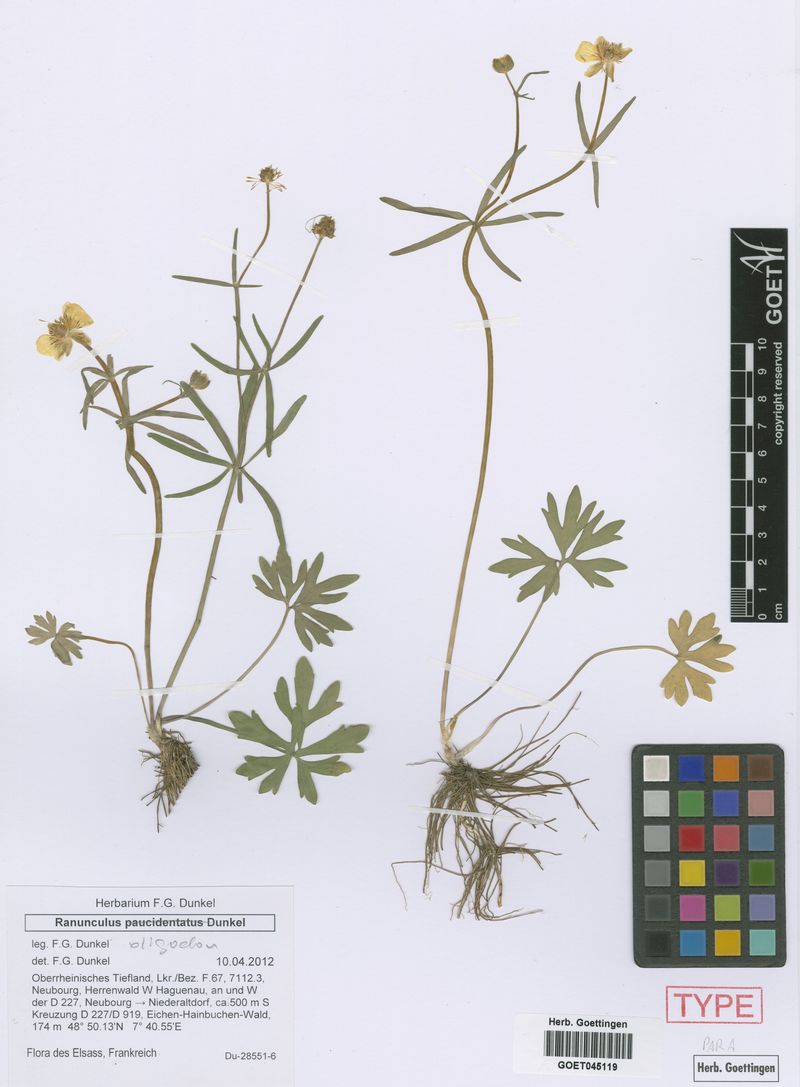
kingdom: Plantae
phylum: Tracheophyta
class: Magnoliopsida
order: Ranunculales
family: Ranunculaceae
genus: Ranunculus
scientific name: Ranunculus oligodon
